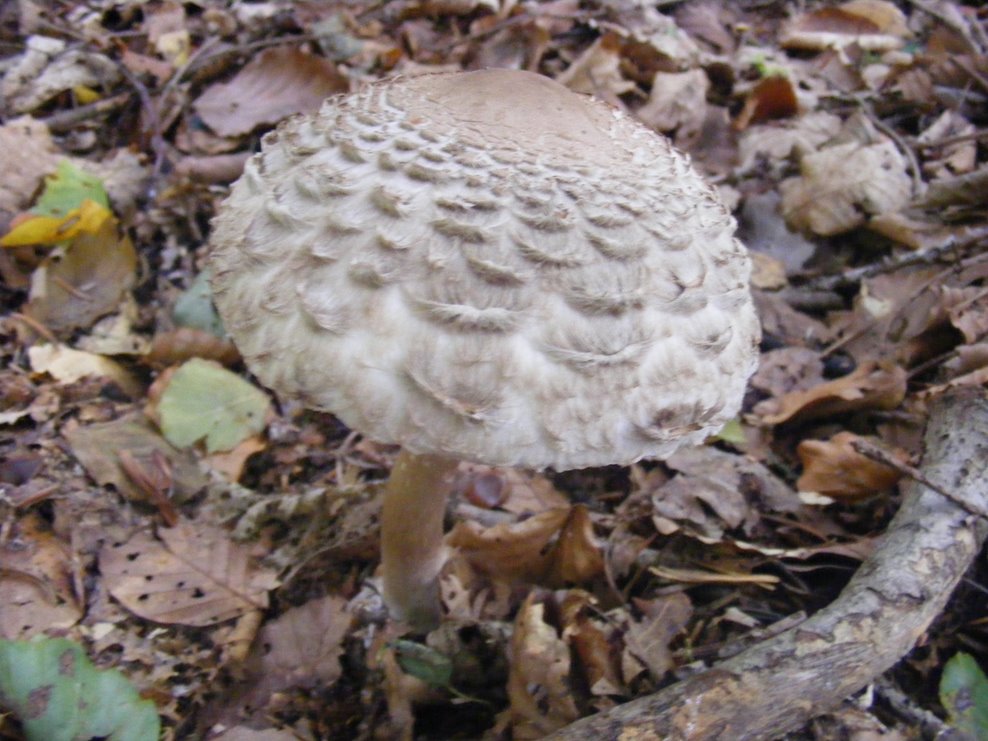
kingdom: Fungi
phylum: Basidiomycota
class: Agaricomycetes
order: Agaricales
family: Agaricaceae
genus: Chlorophyllum
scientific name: Chlorophyllum olivieri
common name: almindelig rabarberhat
